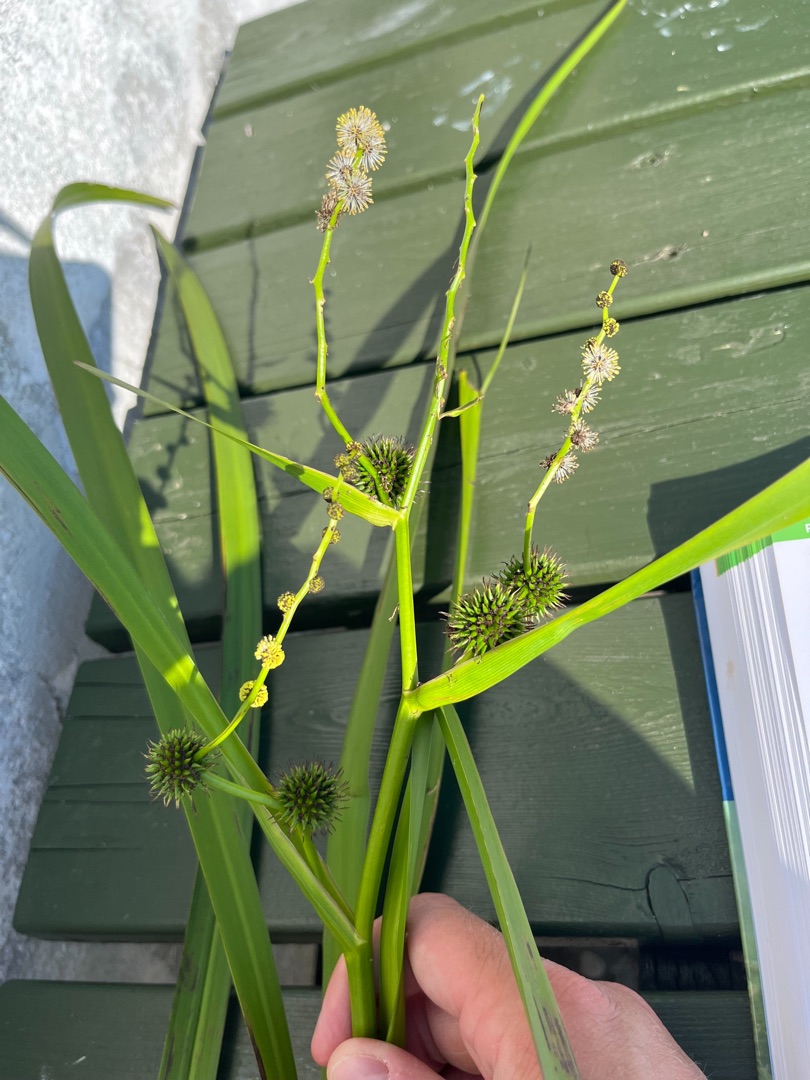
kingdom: Plantae
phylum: Tracheophyta
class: Liliopsida
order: Poales
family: Typhaceae
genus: Sparganium
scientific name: Sparganium erectum
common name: Grenet pindsvineknop
